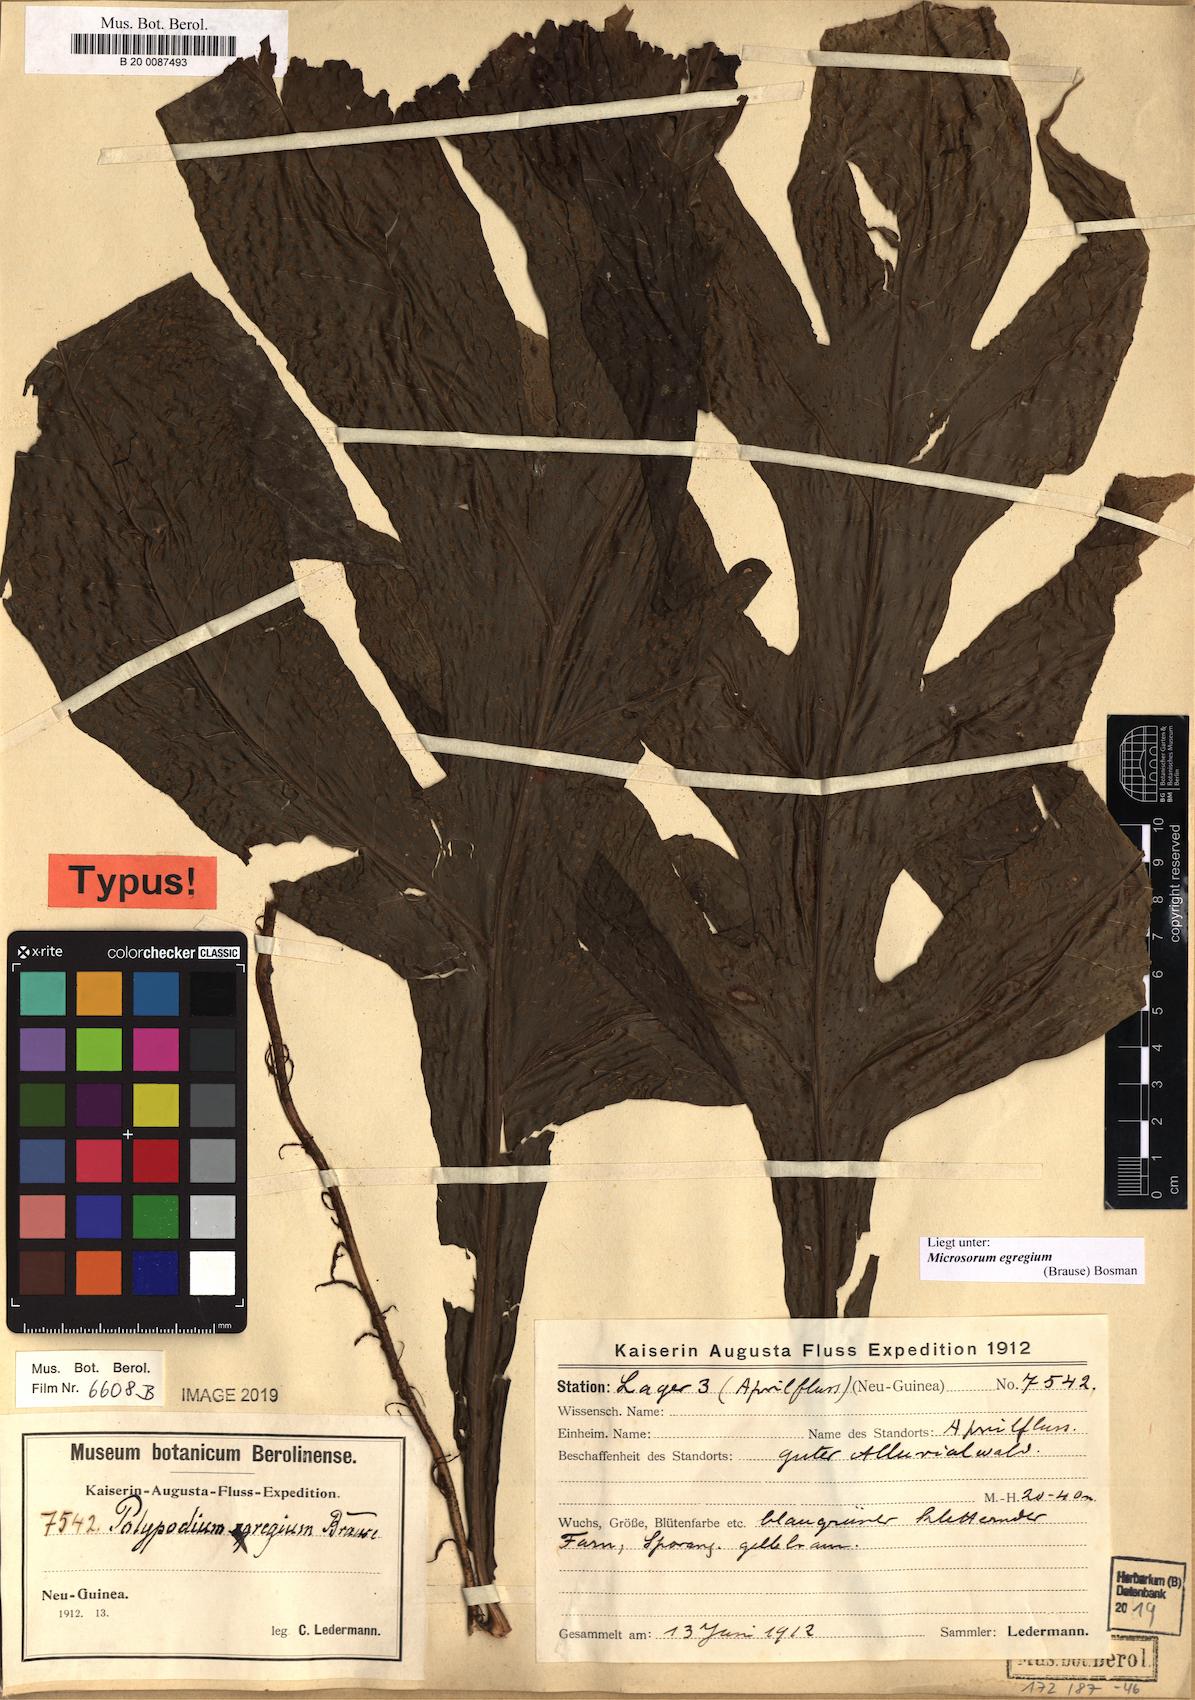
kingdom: Plantae
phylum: Tracheophyta
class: Polypodiopsida
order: Polypodiales
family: Polypodiaceae
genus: Microsorum
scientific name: Microsorum egregium
